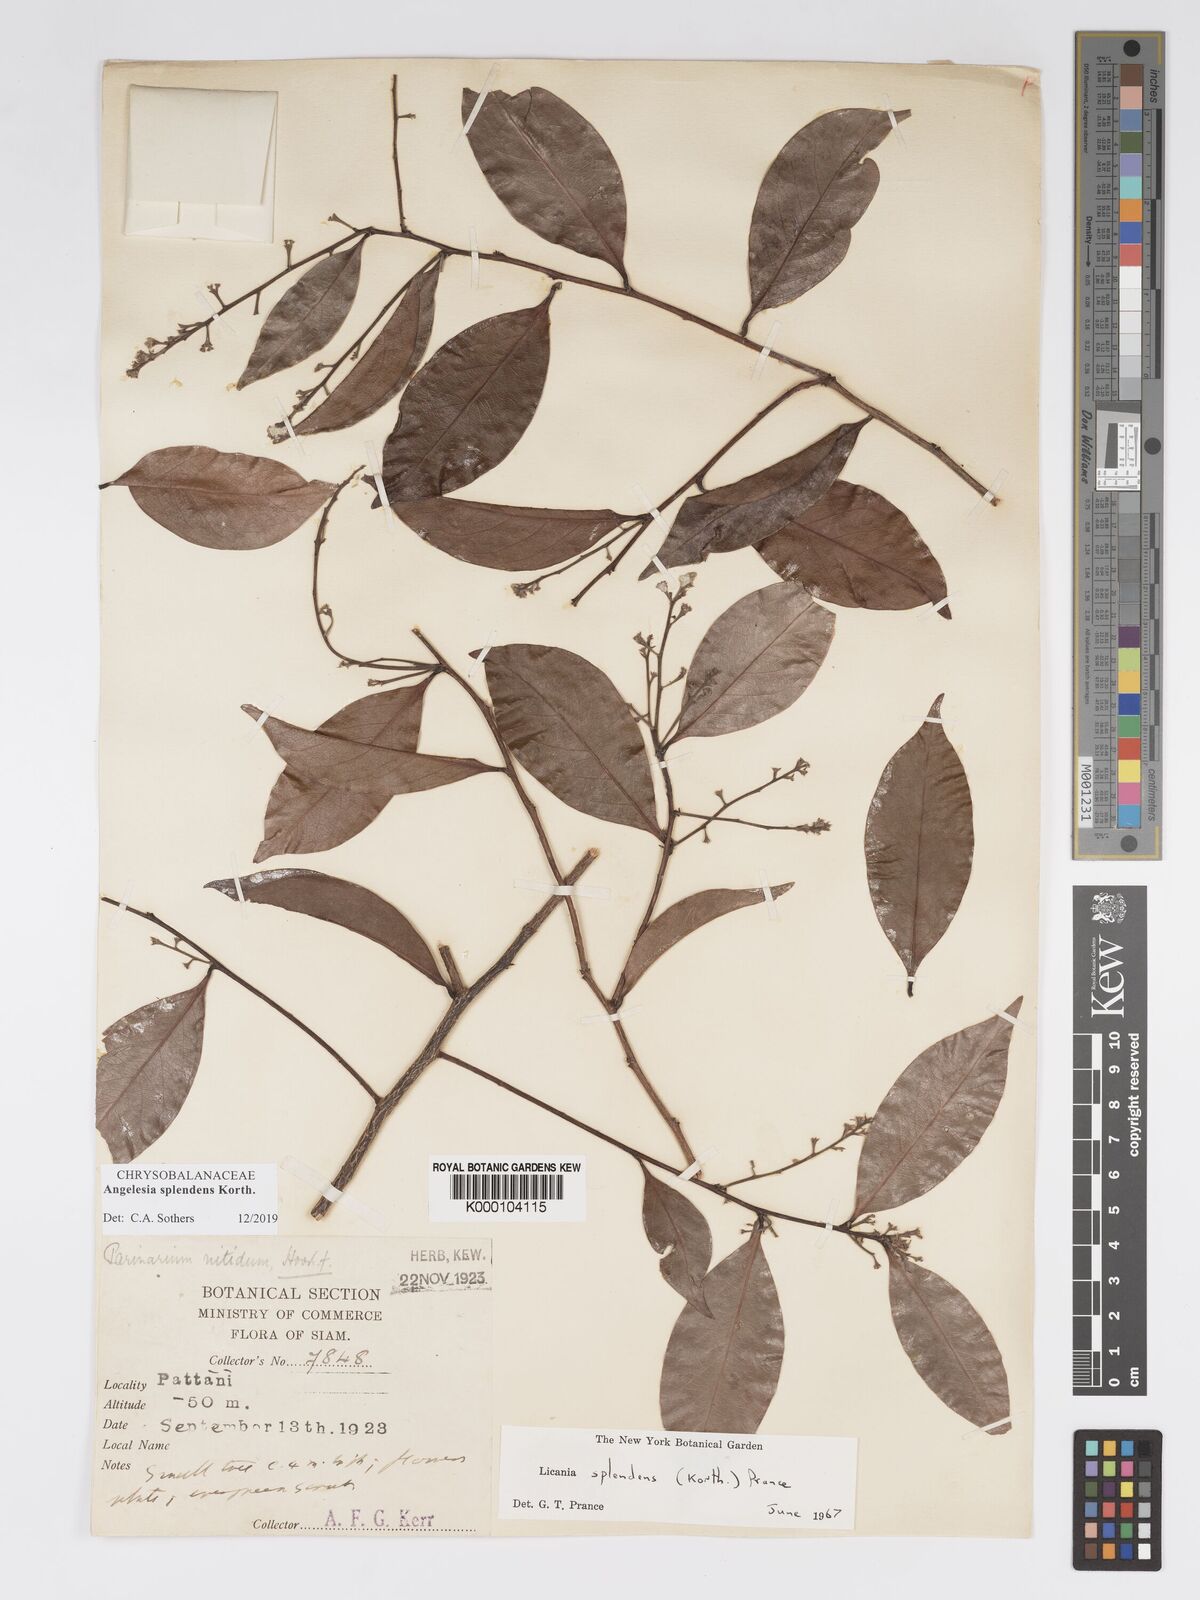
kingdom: Plantae
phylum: Tracheophyta
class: Magnoliopsida
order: Malpighiales
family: Chrysobalanaceae
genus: Angelesia
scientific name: Angelesia splendens
